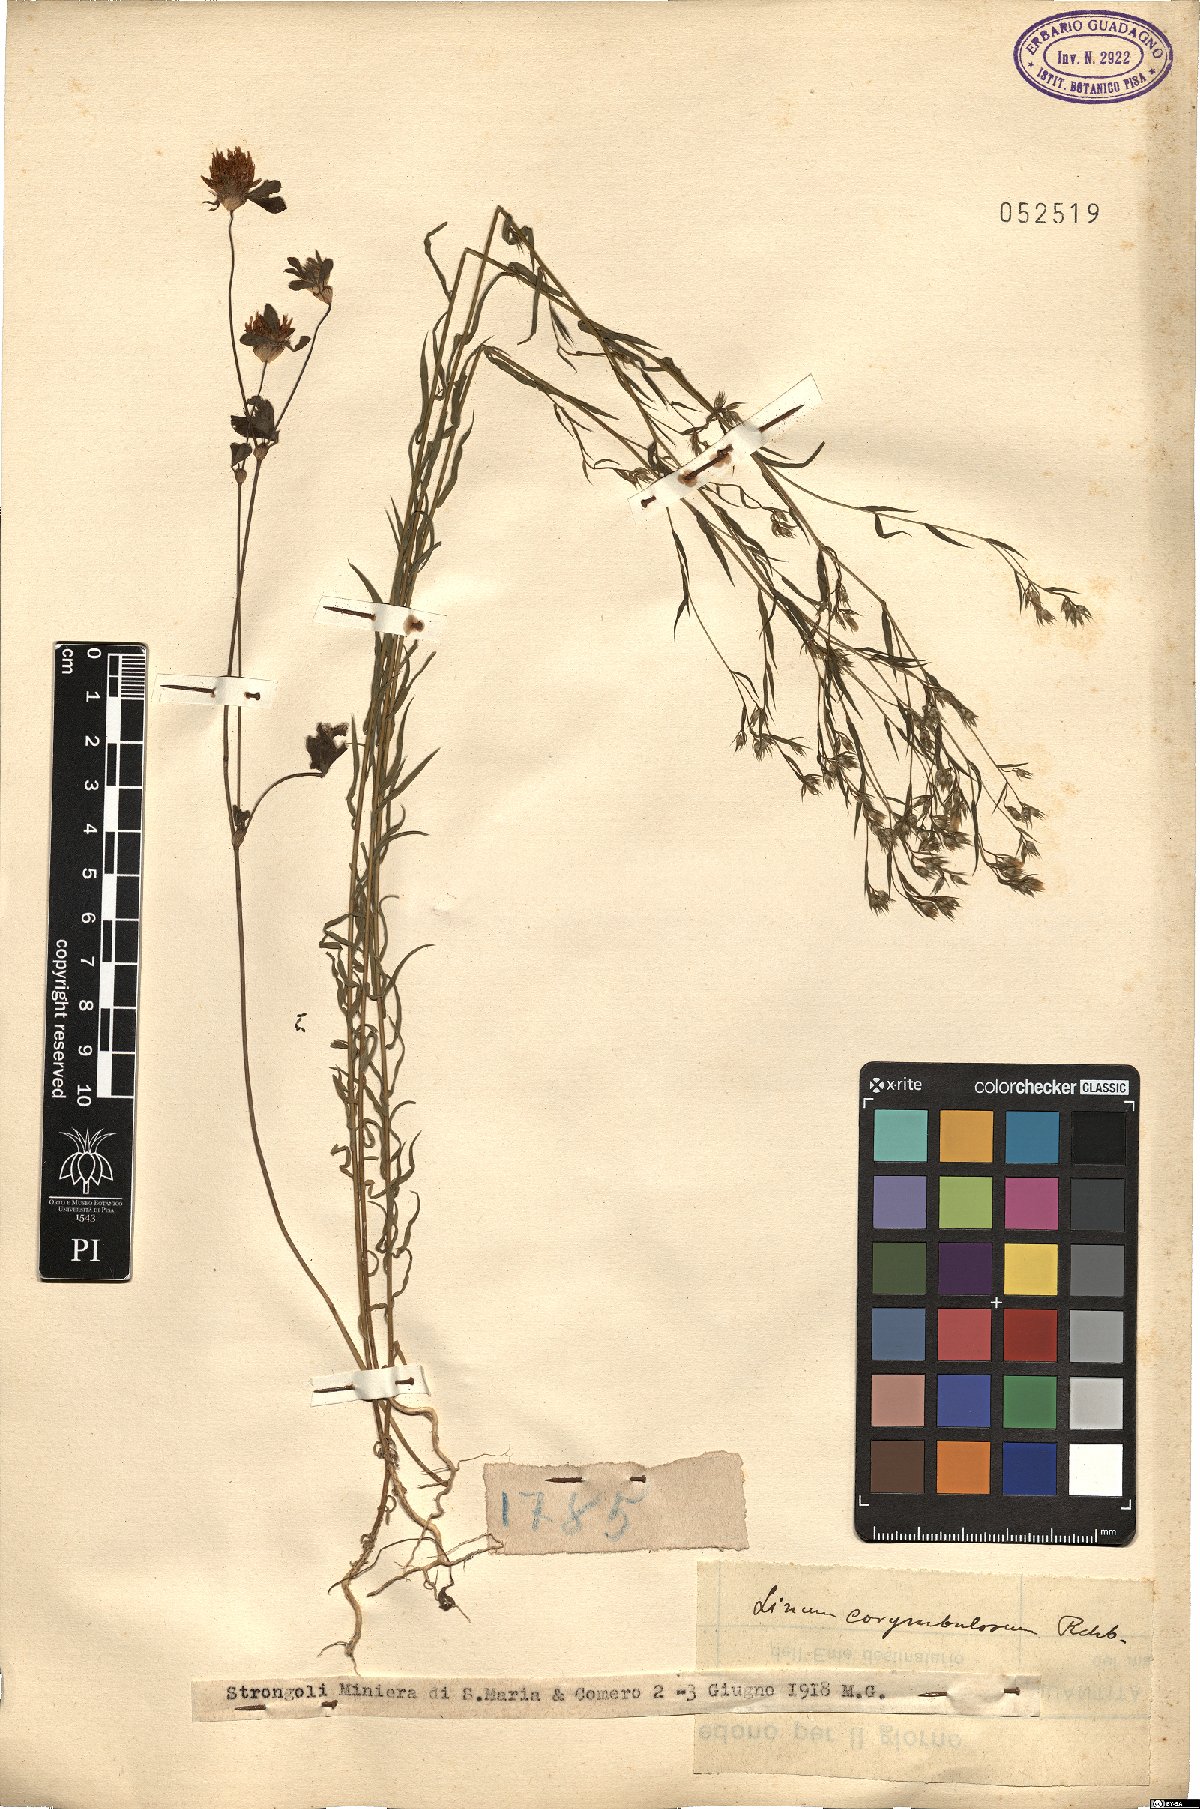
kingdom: Plantae
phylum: Tracheophyta
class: Magnoliopsida
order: Malpighiales
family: Linaceae
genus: Linum
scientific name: Linum corymbulosum
